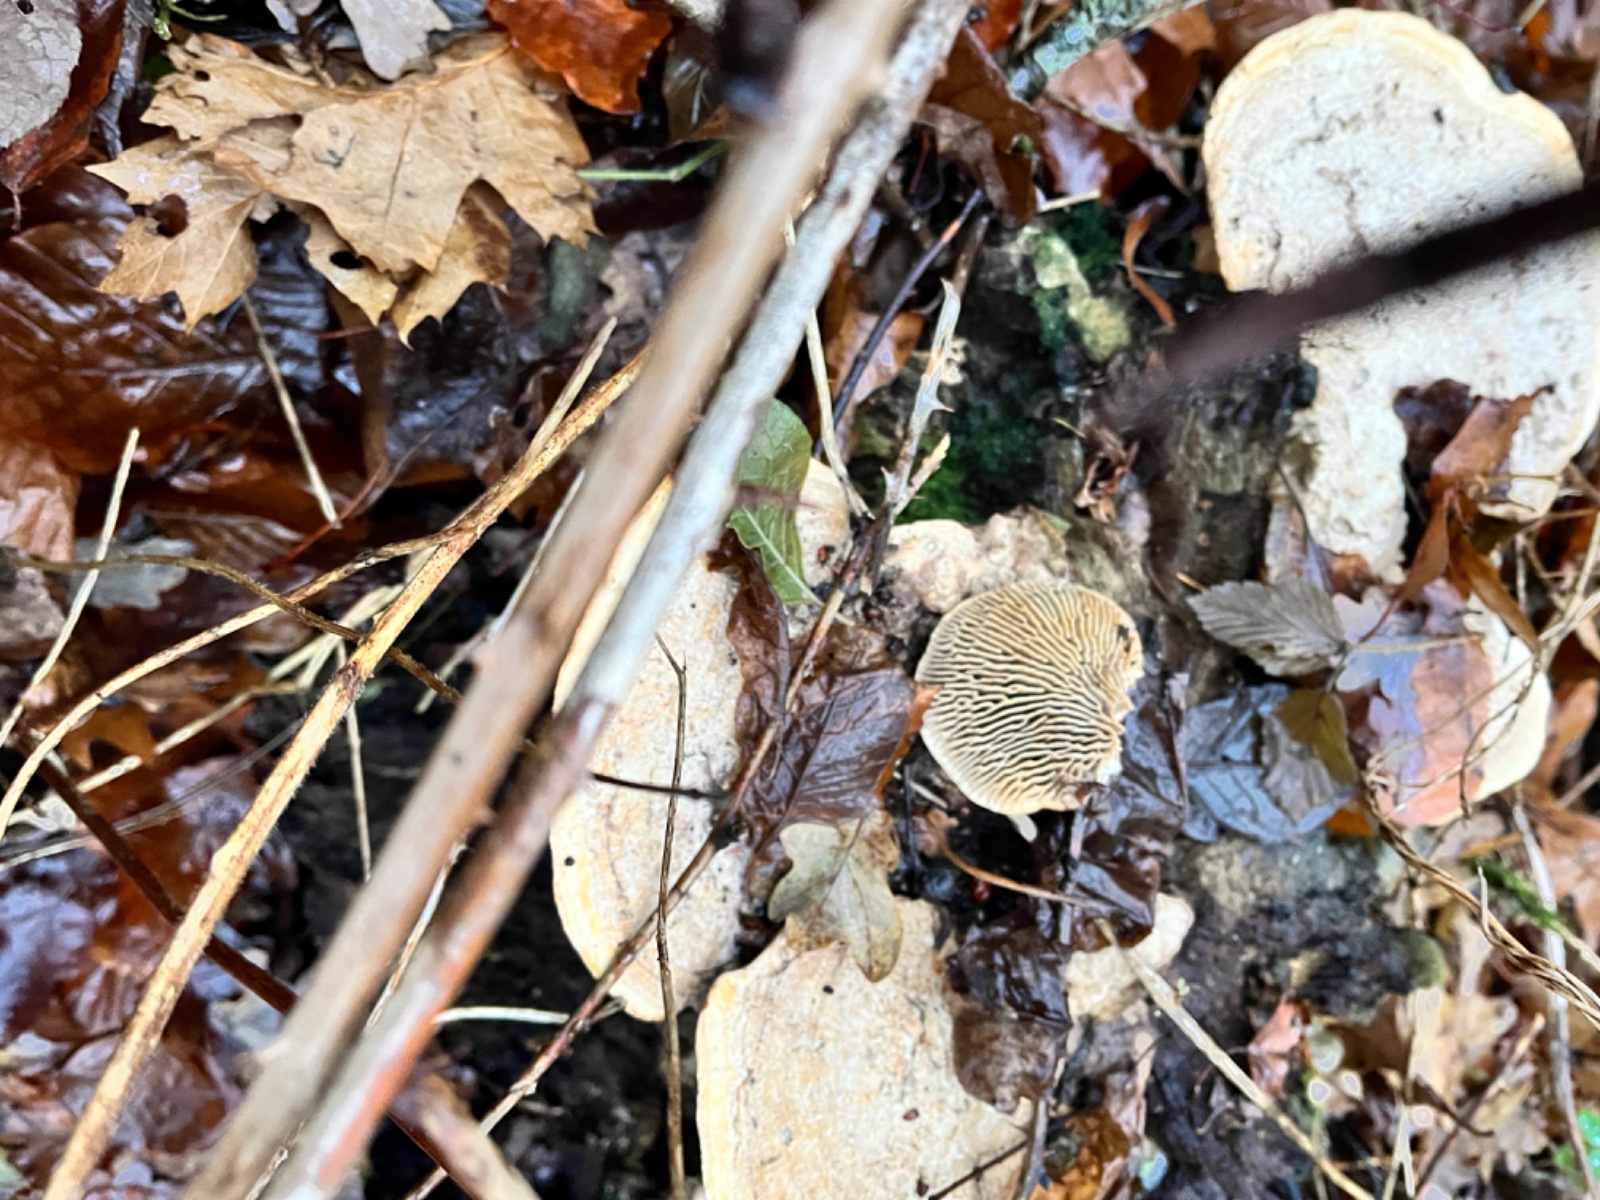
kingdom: Fungi
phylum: Basidiomycota
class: Agaricomycetes
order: Polyporales
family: Fomitopsidaceae
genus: Daedalea
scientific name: Daedalea quercina
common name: ege-labyrintsvamp
